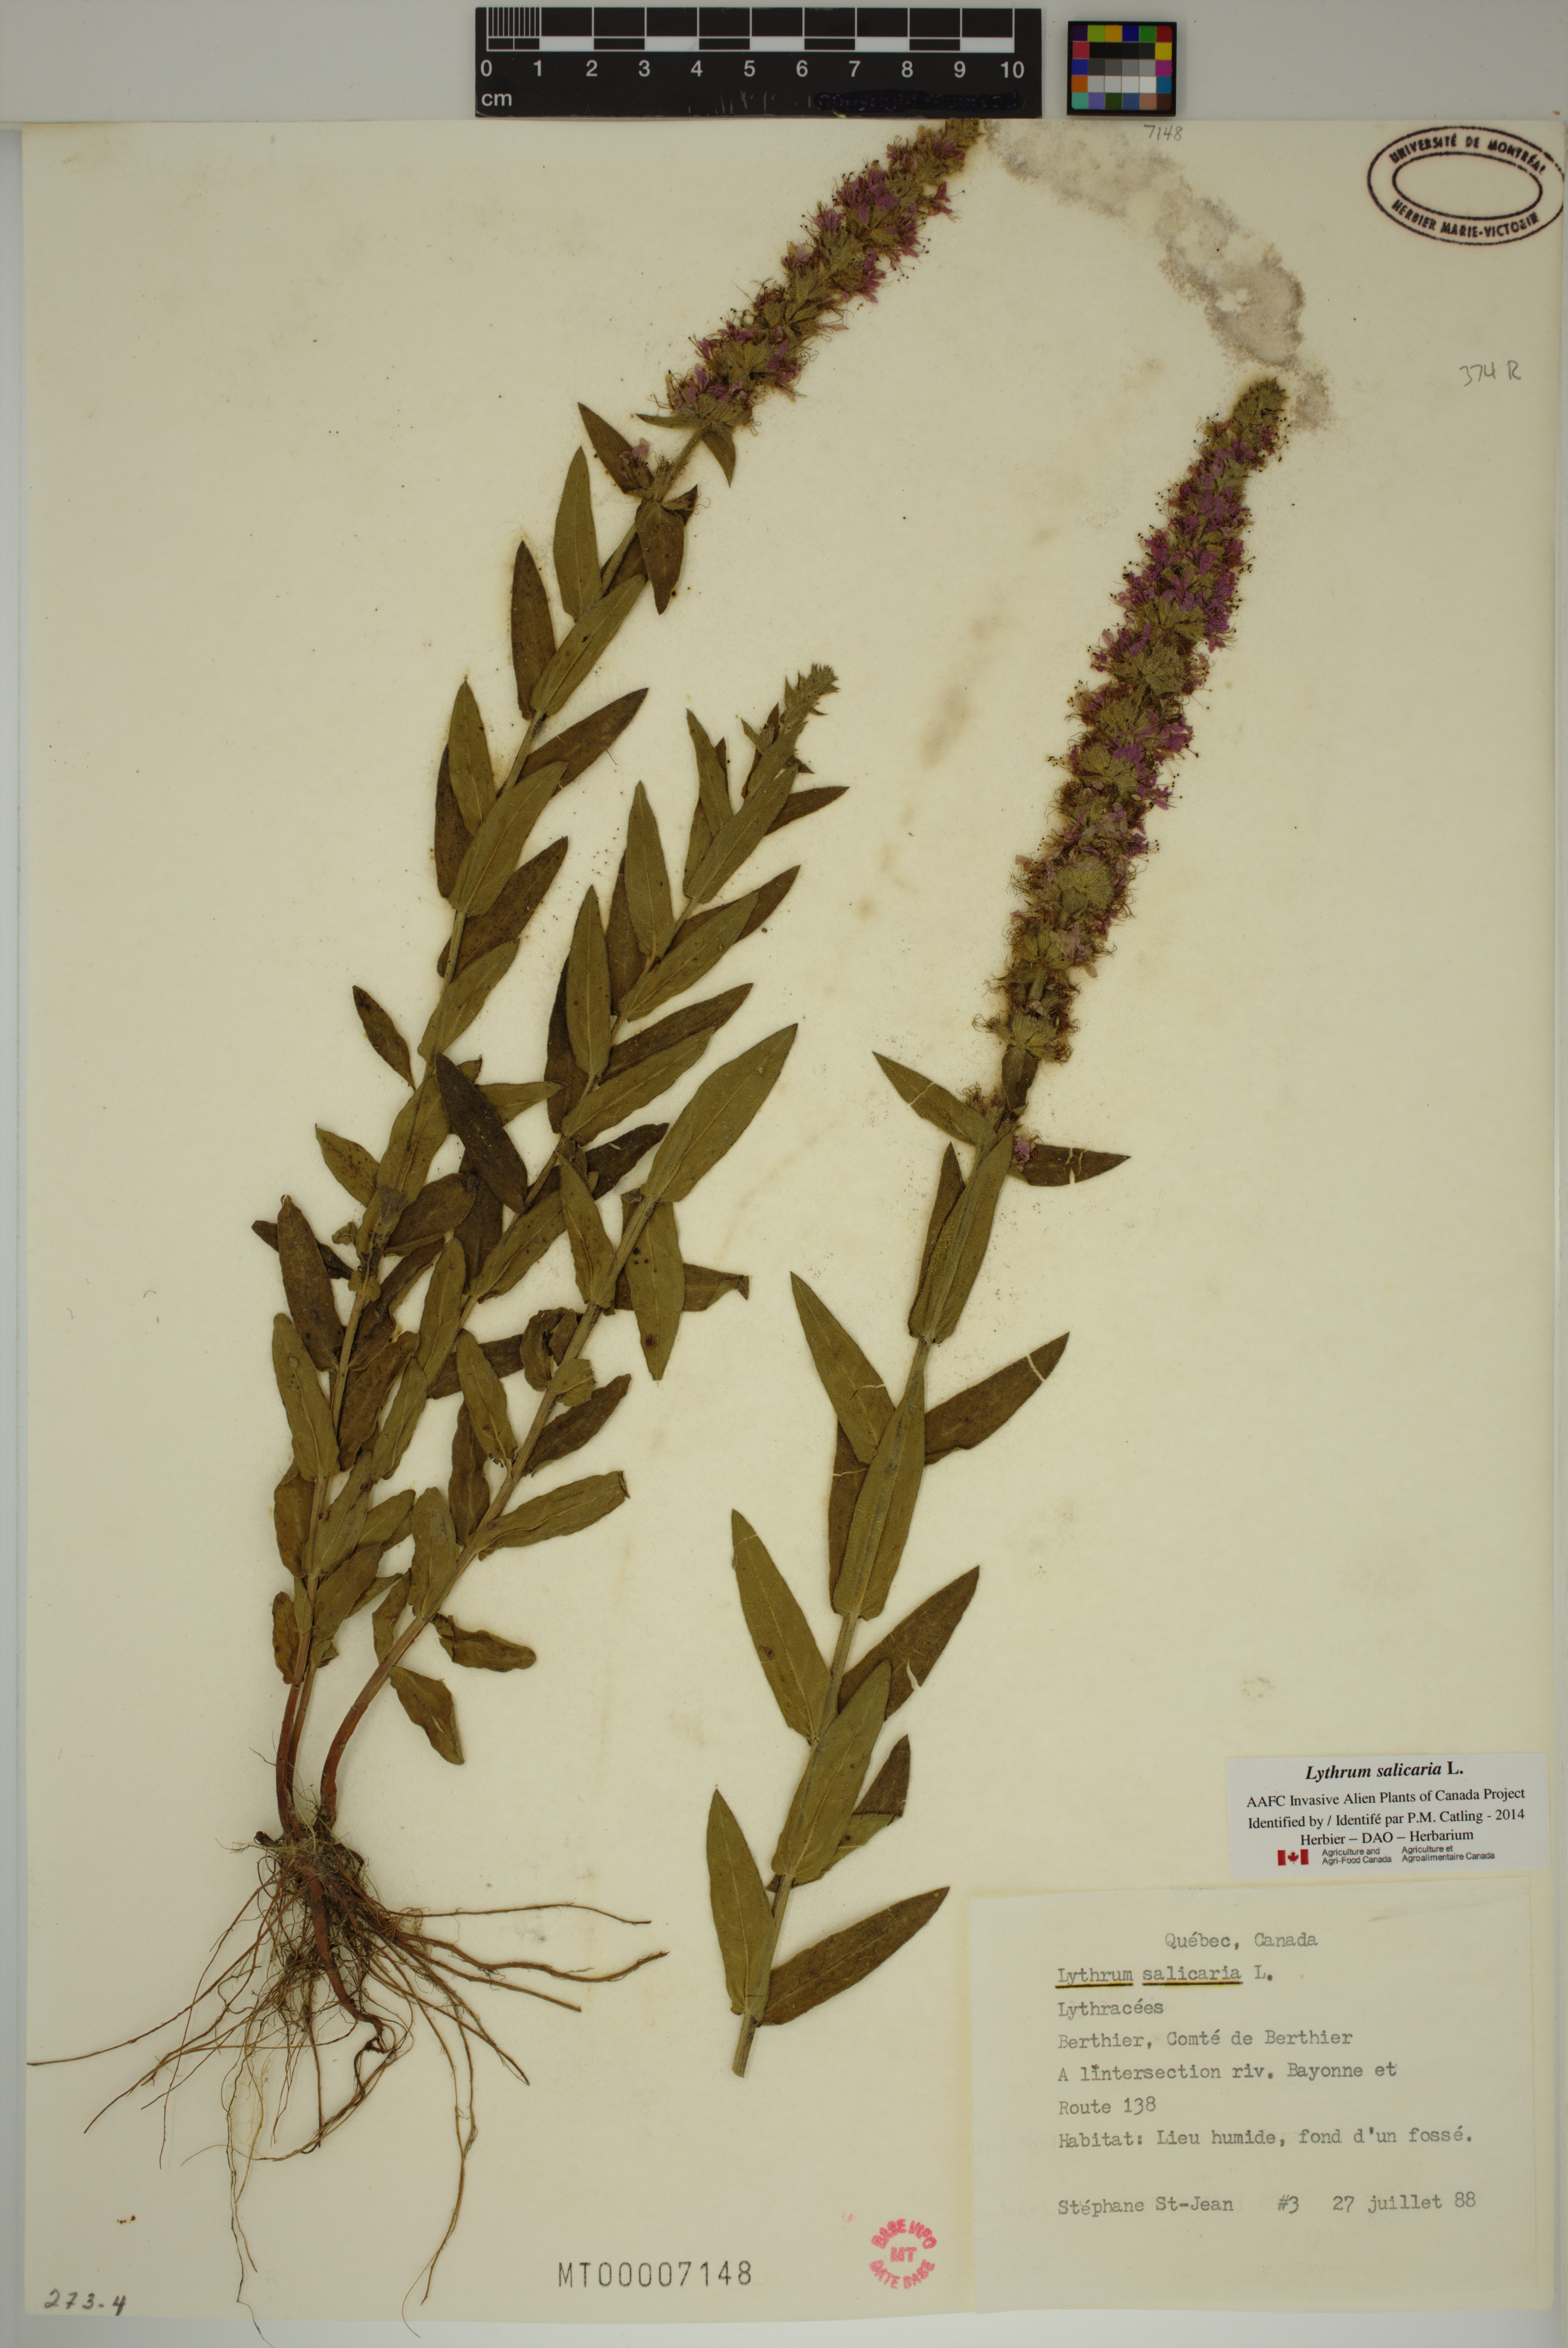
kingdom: Plantae
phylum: Tracheophyta
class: Magnoliopsida
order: Myrtales
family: Lythraceae
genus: Lythrum
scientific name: Lythrum salicaria
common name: Purple loosestrife
